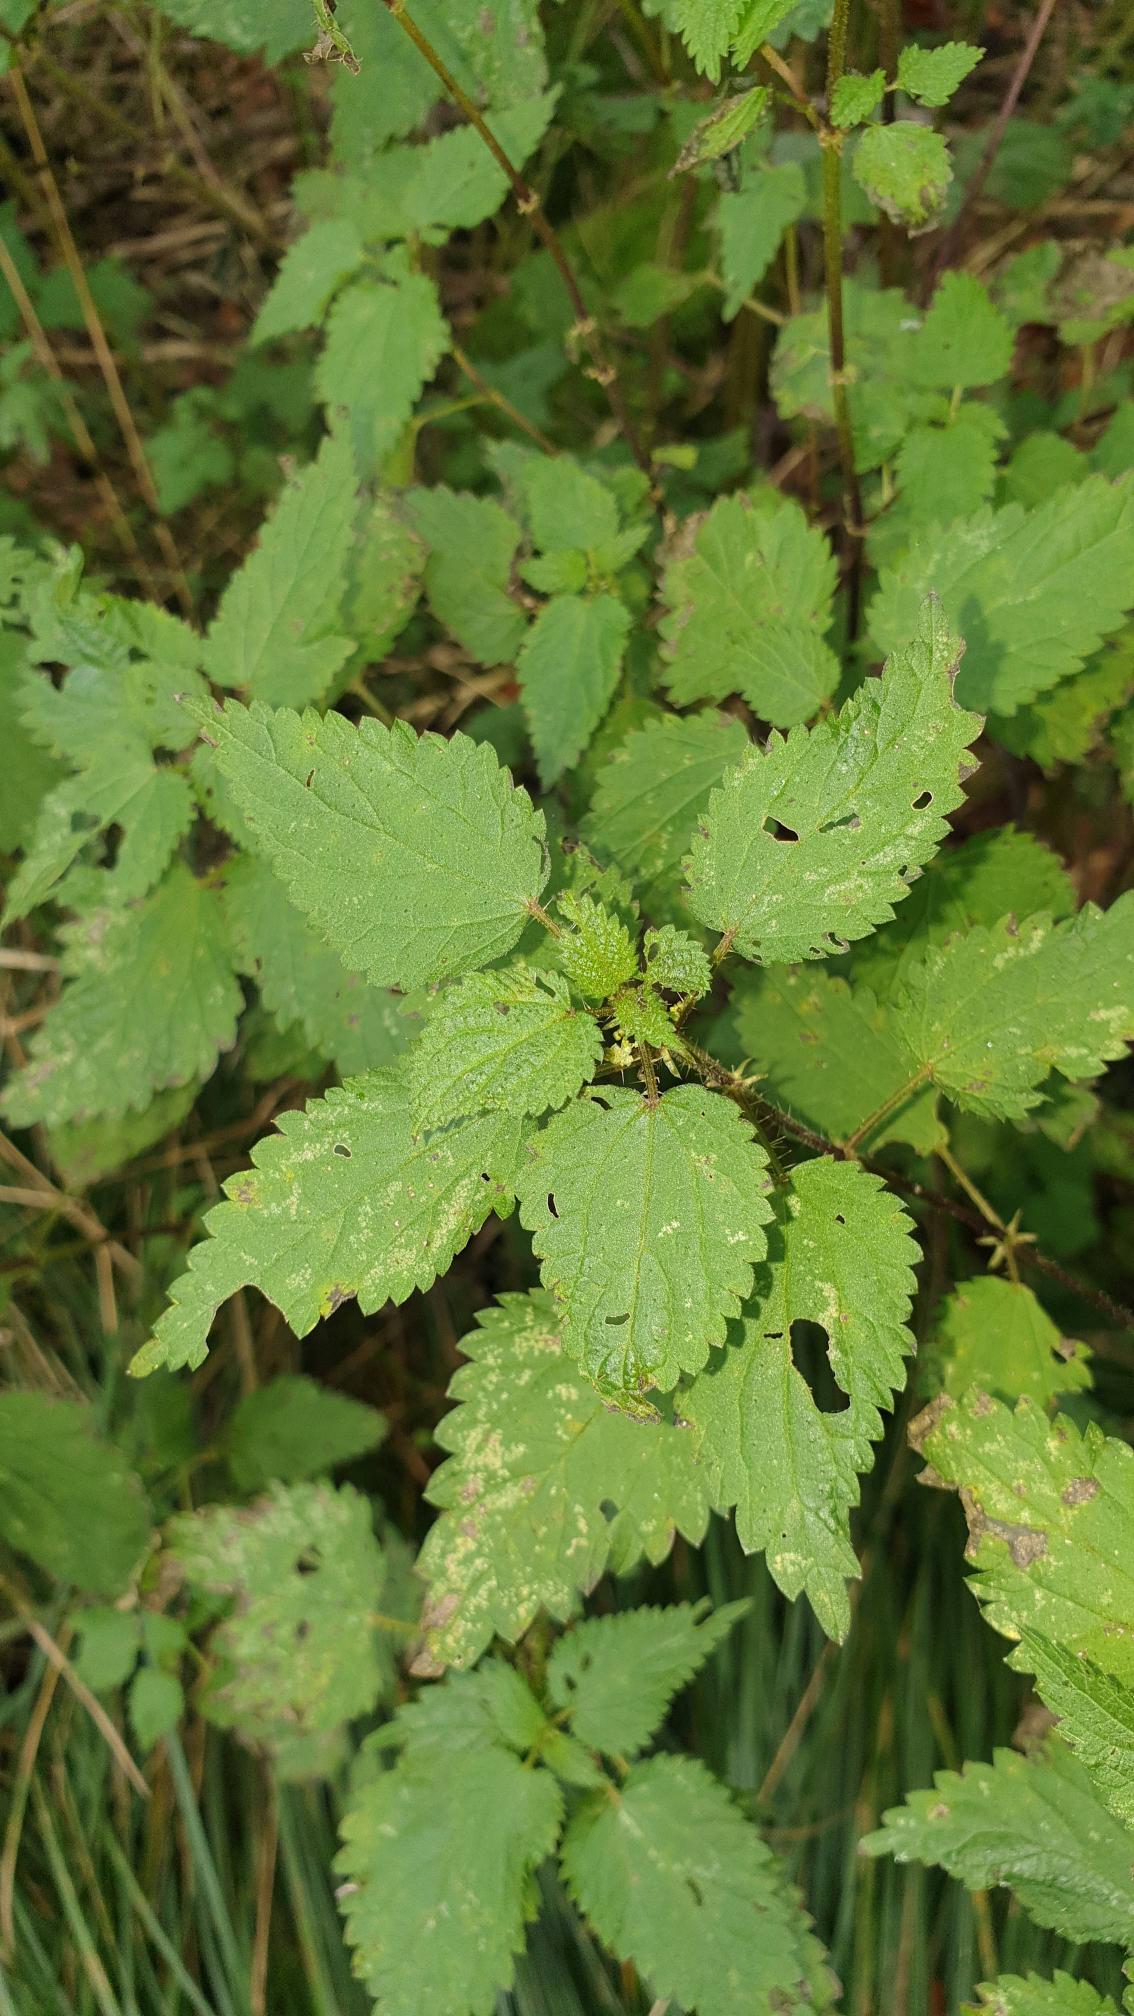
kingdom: Plantae
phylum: Tracheophyta
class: Magnoliopsida
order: Rosales
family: Urticaceae
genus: Urtica
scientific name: Urtica dioica
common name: Stor nælde
